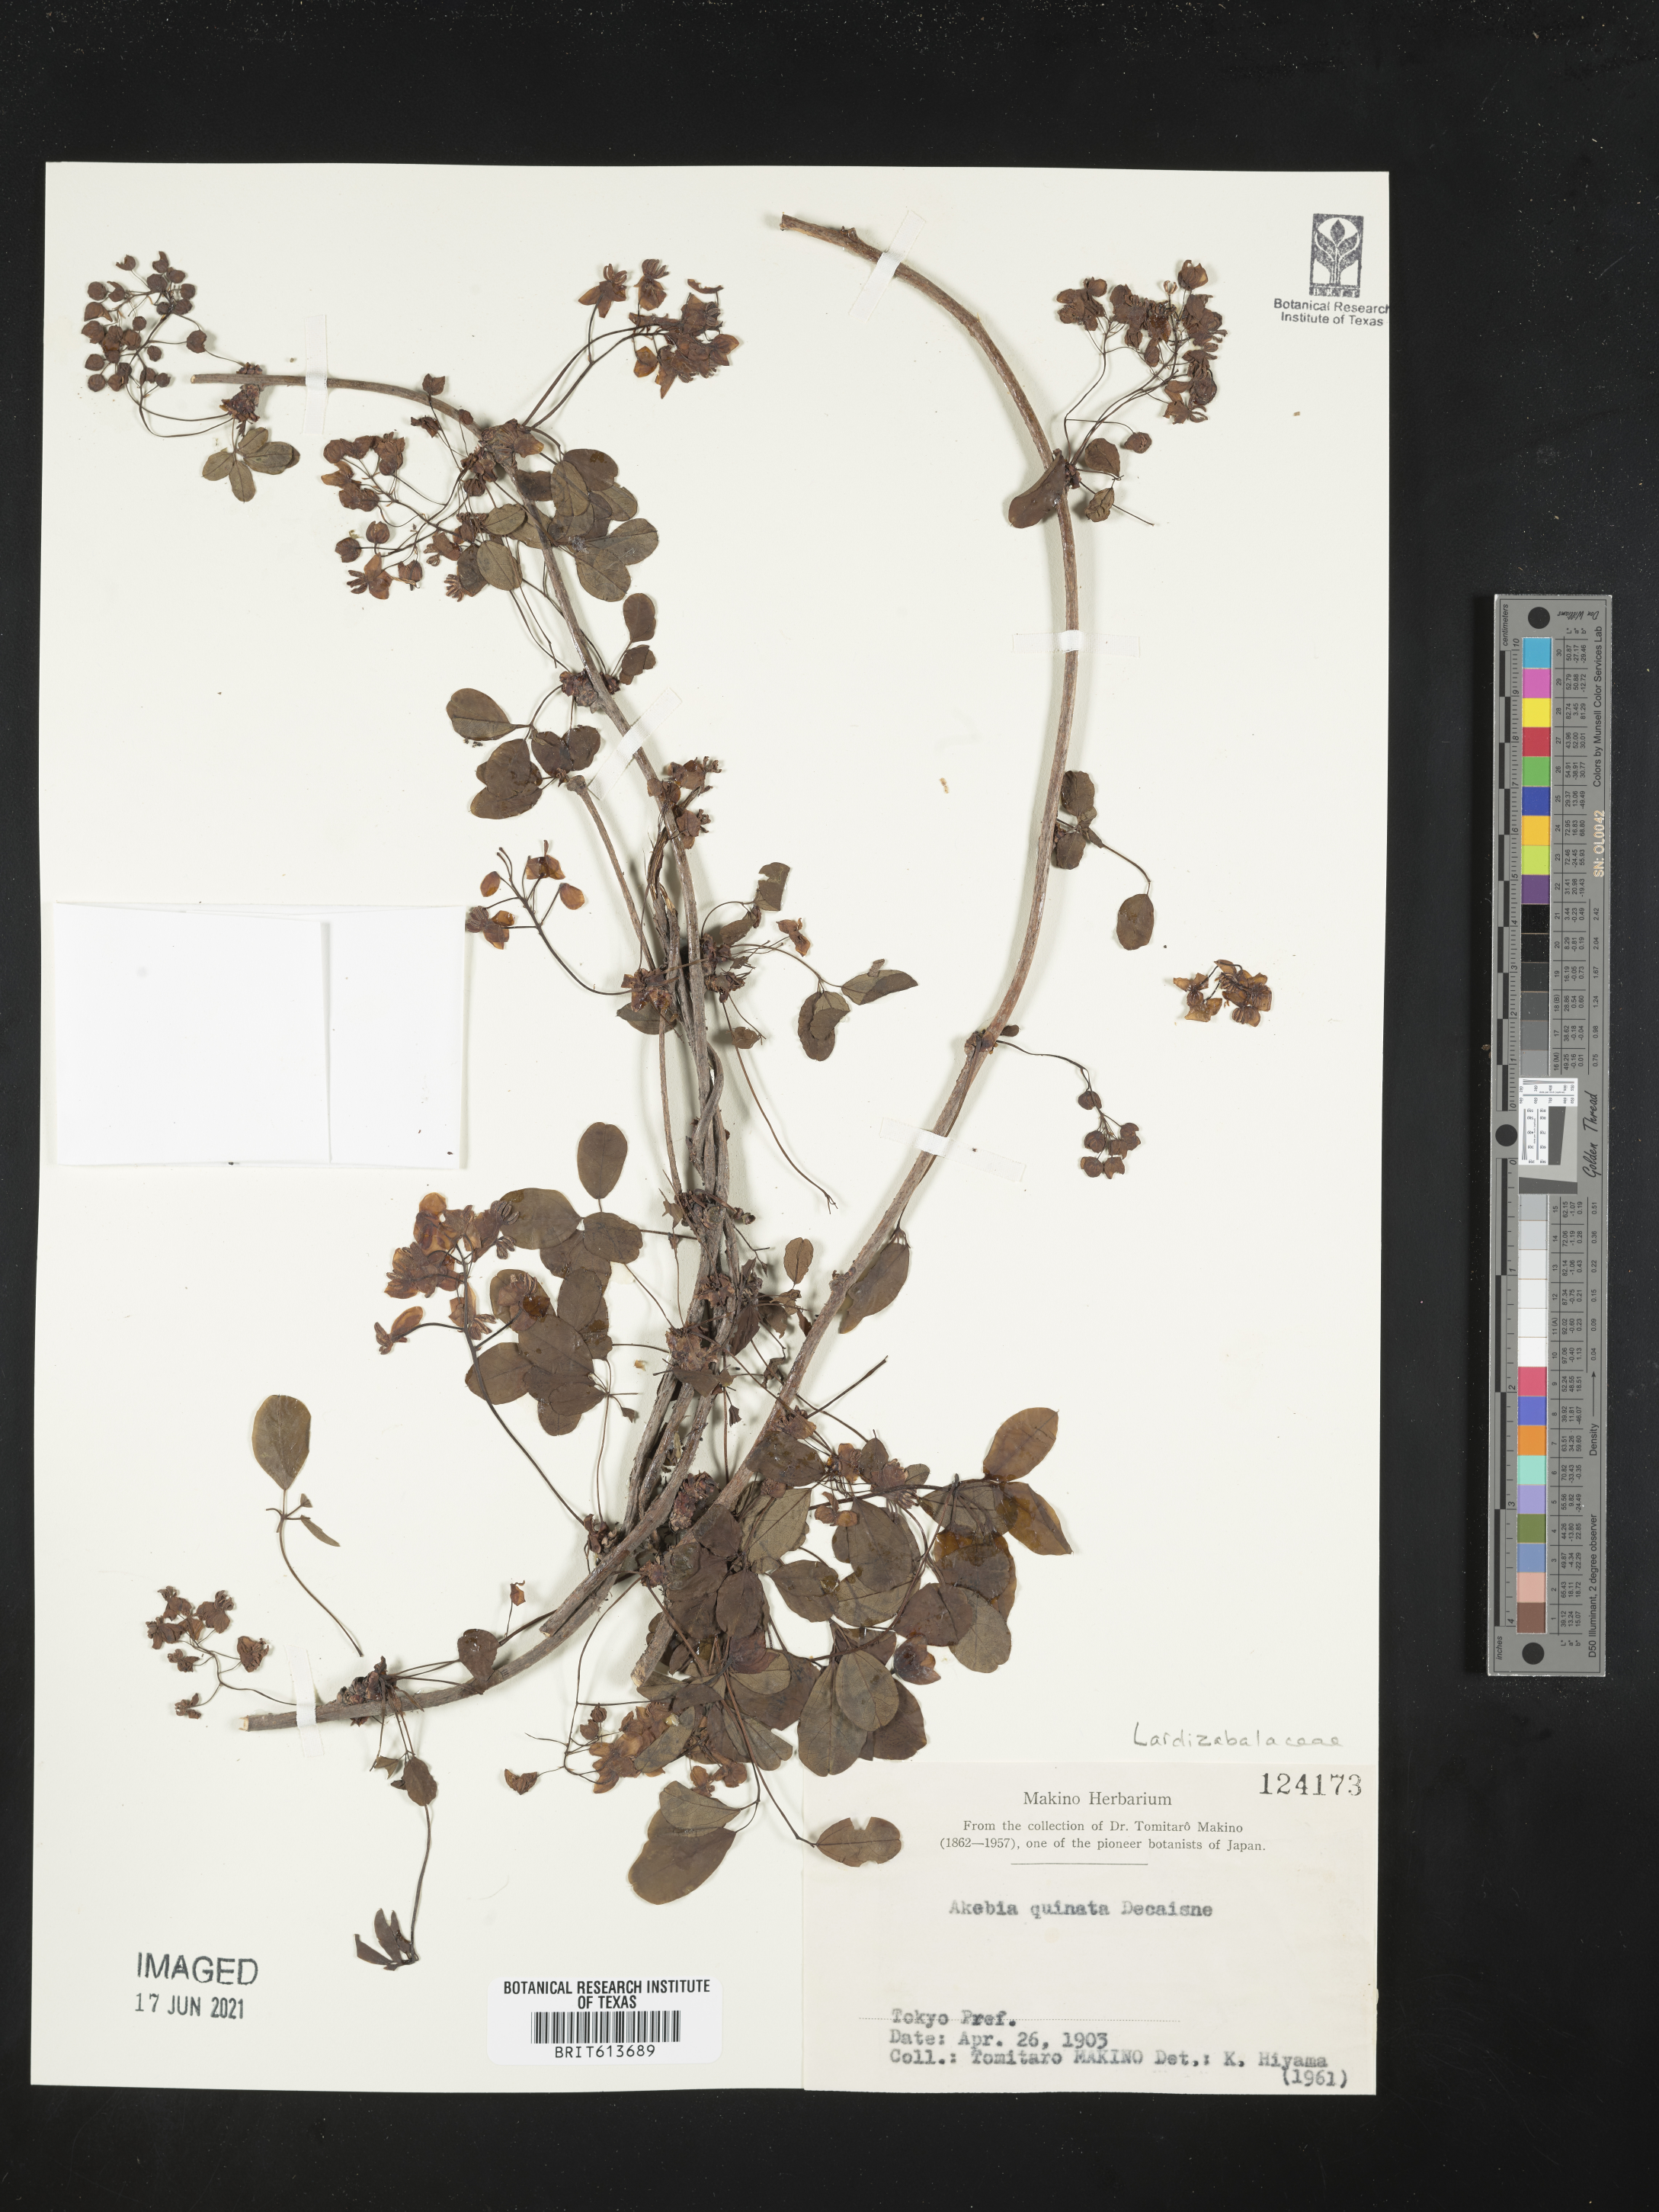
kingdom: Plantae
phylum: Tracheophyta
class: Magnoliopsida
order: Ranunculales
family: Lardizabalaceae
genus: Akebia
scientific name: Akebia quinata
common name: Five-leaf akebia
